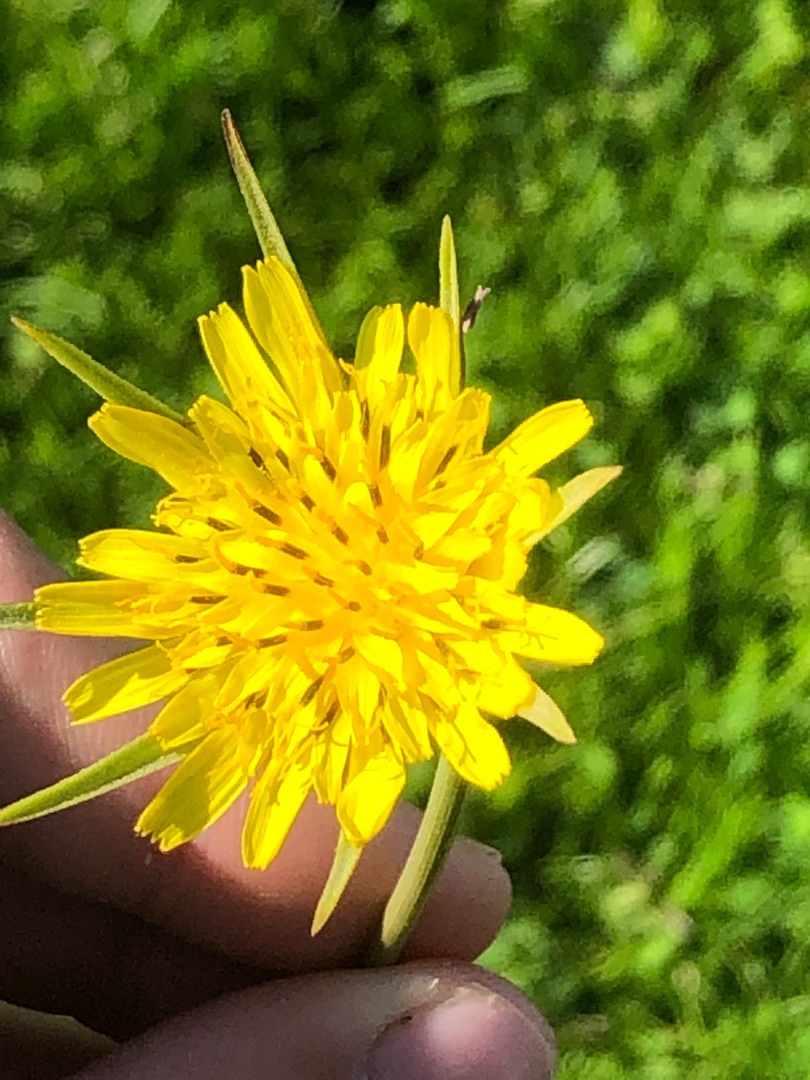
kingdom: Plantae
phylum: Tracheophyta
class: Magnoliopsida
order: Asterales
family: Asteraceae
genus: Tragopogon
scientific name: Tragopogon minor
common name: Småkronet gedeskæg
